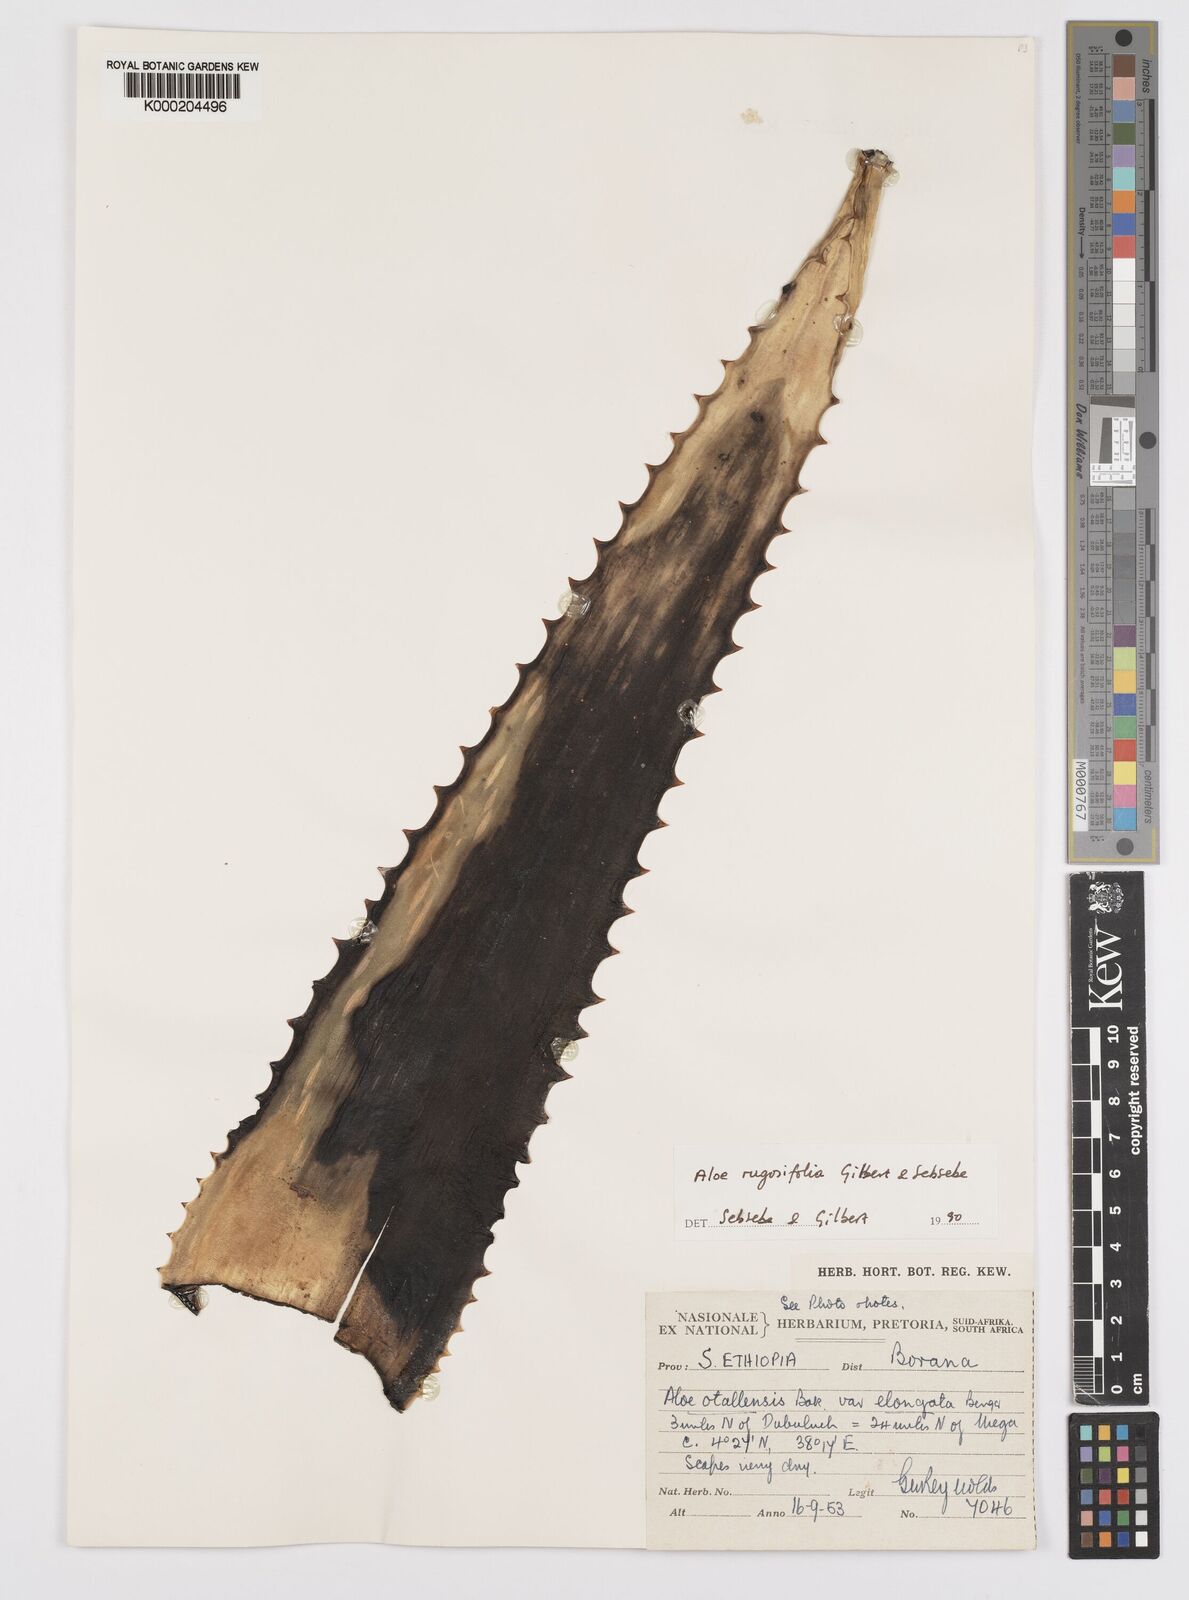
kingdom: Plantae
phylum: Tracheophyta
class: Liliopsida
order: Asparagales
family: Asphodelaceae
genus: Aloe
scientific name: Aloe rugosifolia
